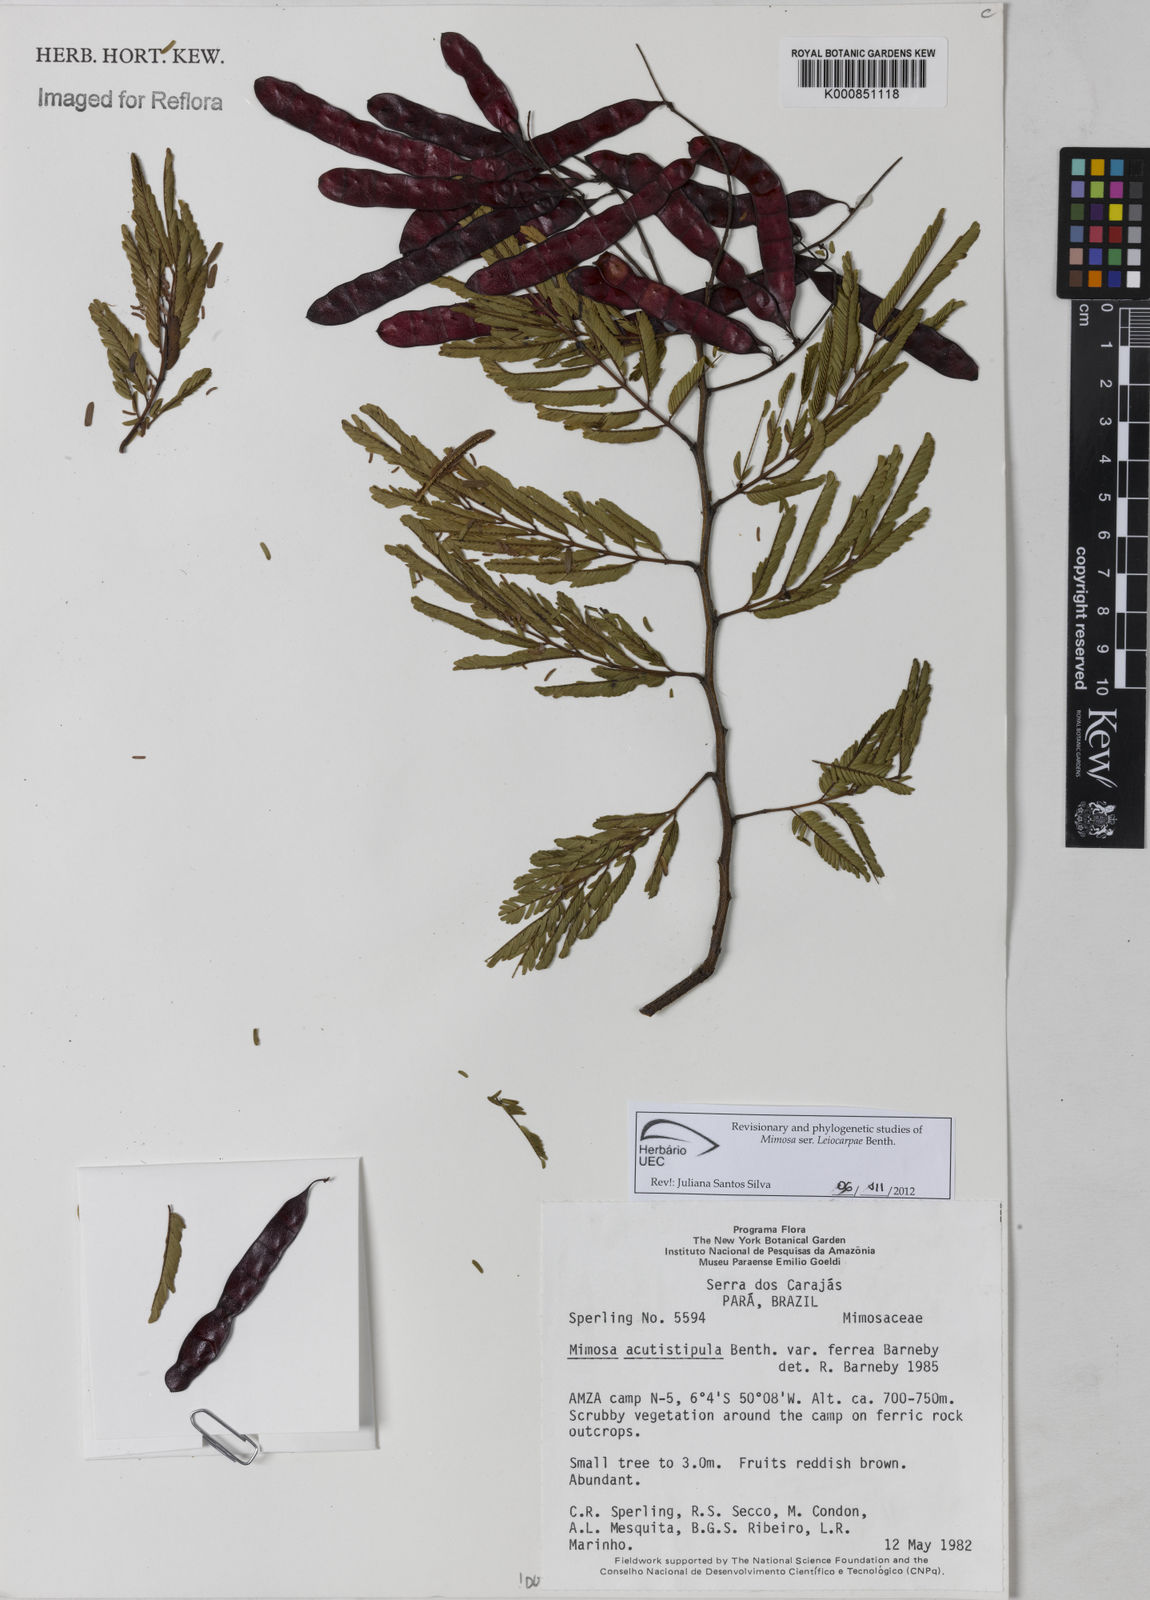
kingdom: Plantae
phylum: Tracheophyta
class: Magnoliopsida
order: Fabales
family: Fabaceae
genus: Mimosa
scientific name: Mimosa acutistipula
